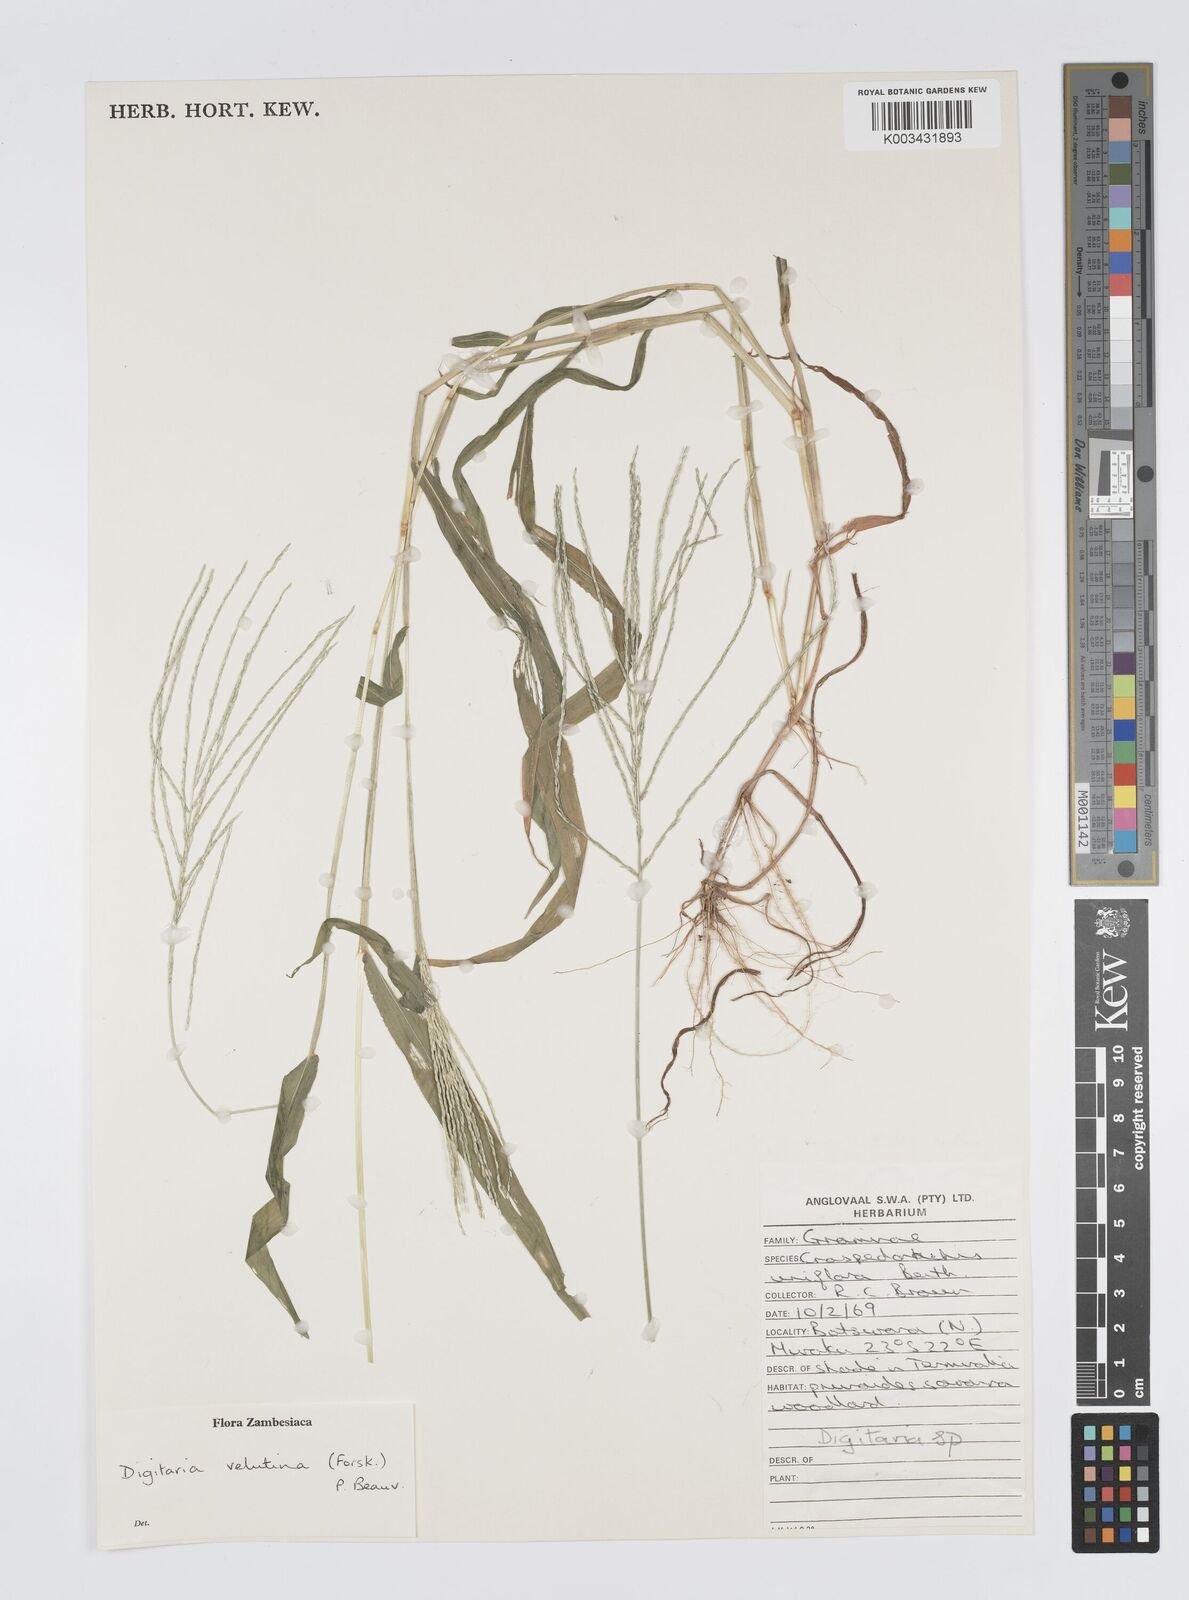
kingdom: Plantae
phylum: Tracheophyta
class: Liliopsida
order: Poales
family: Poaceae
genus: Digitaria
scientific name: Digitaria velutina
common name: Long-plume finger grass
